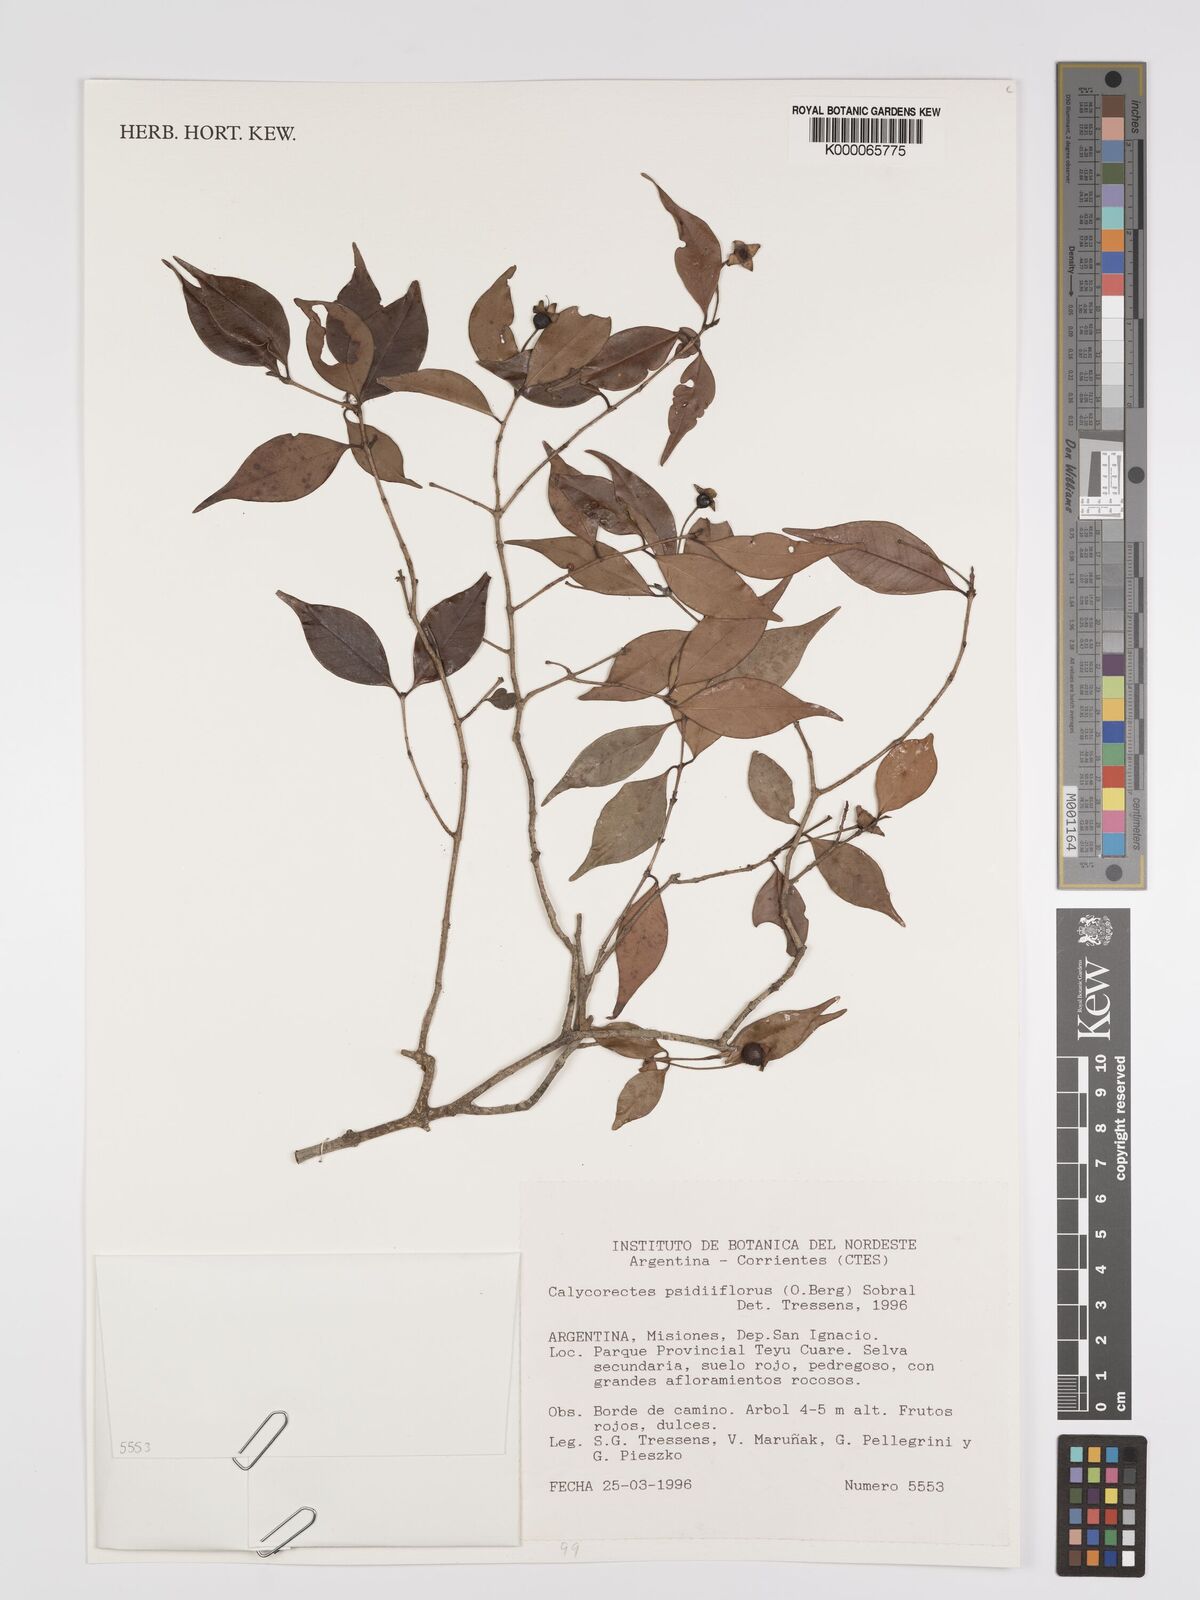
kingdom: Plantae
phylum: Tracheophyta
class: Magnoliopsida
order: Myrtales
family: Myrtaceae
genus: Eugenia
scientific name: Eugenia psidiiflora
